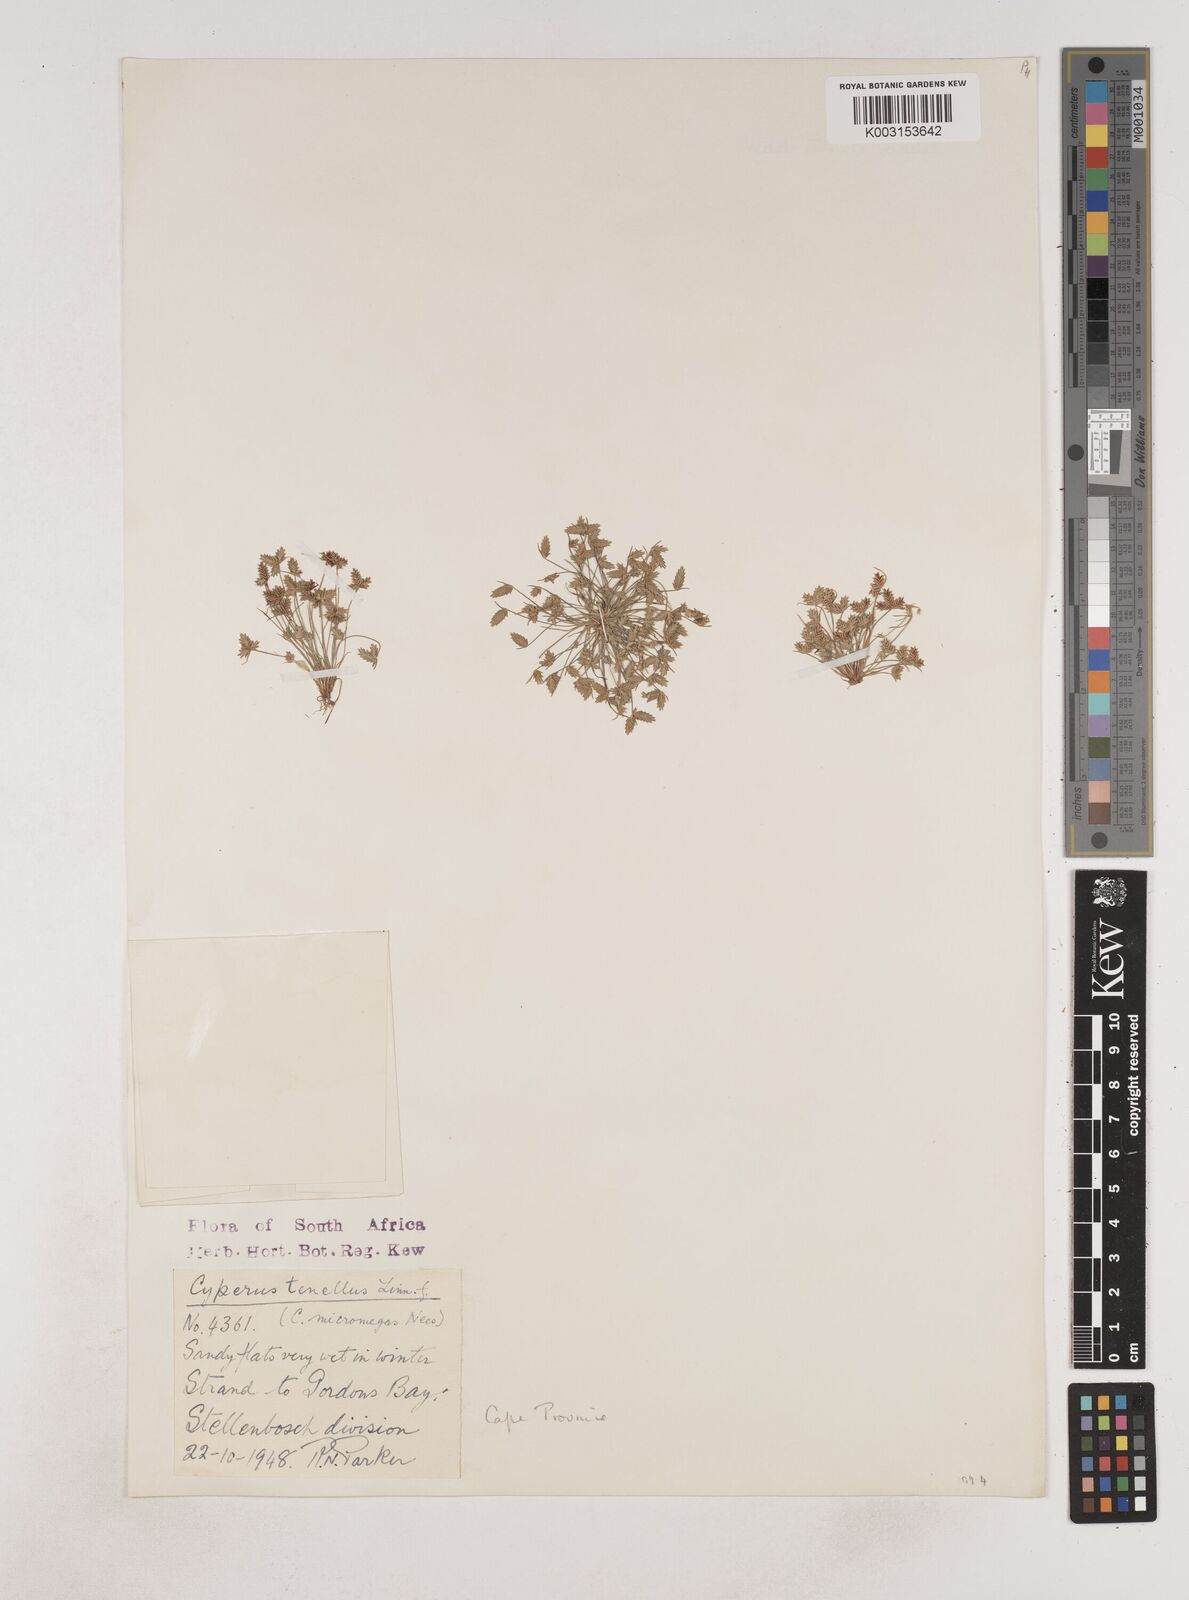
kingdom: Plantae
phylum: Tracheophyta
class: Liliopsida
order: Poales
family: Cyperaceae
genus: Isolepis
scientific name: Isolepis levynsiana
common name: Sedge
